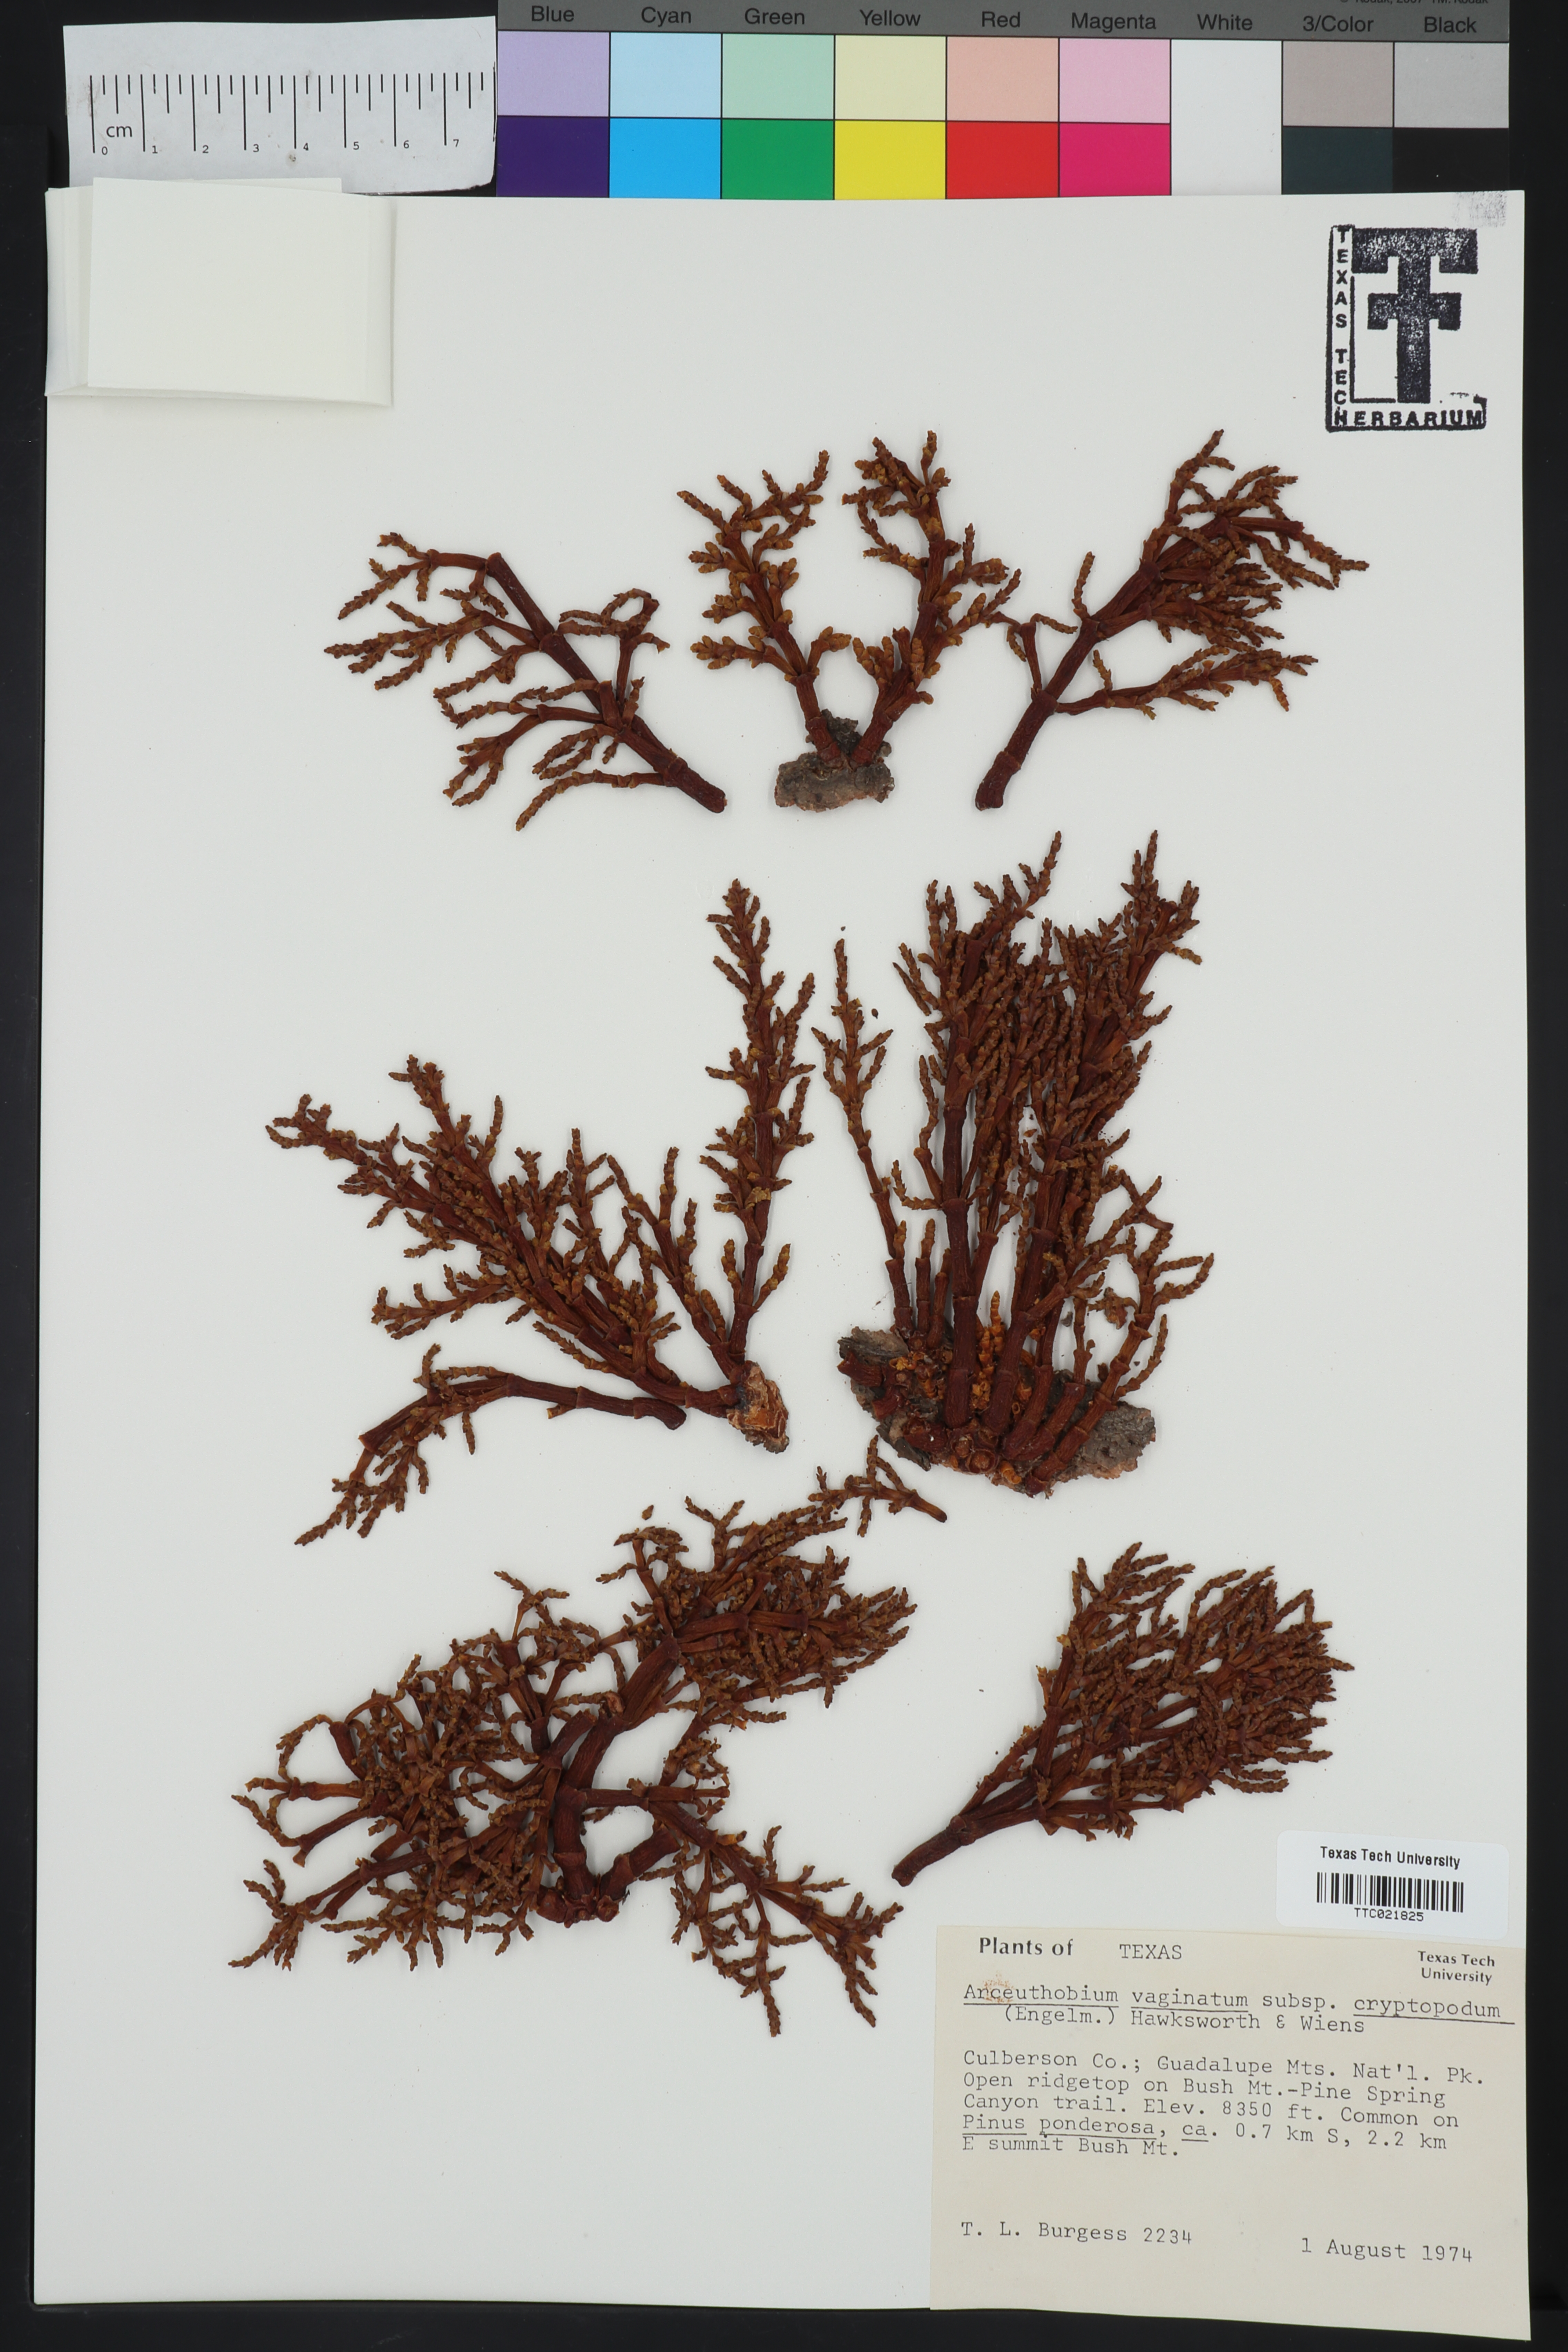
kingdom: Plantae
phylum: Tracheophyta
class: Magnoliopsida
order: Santalales
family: Viscaceae
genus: Arceuthobium
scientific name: Arceuthobium vaginatum
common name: Southwestern dwarf-mistletoe
